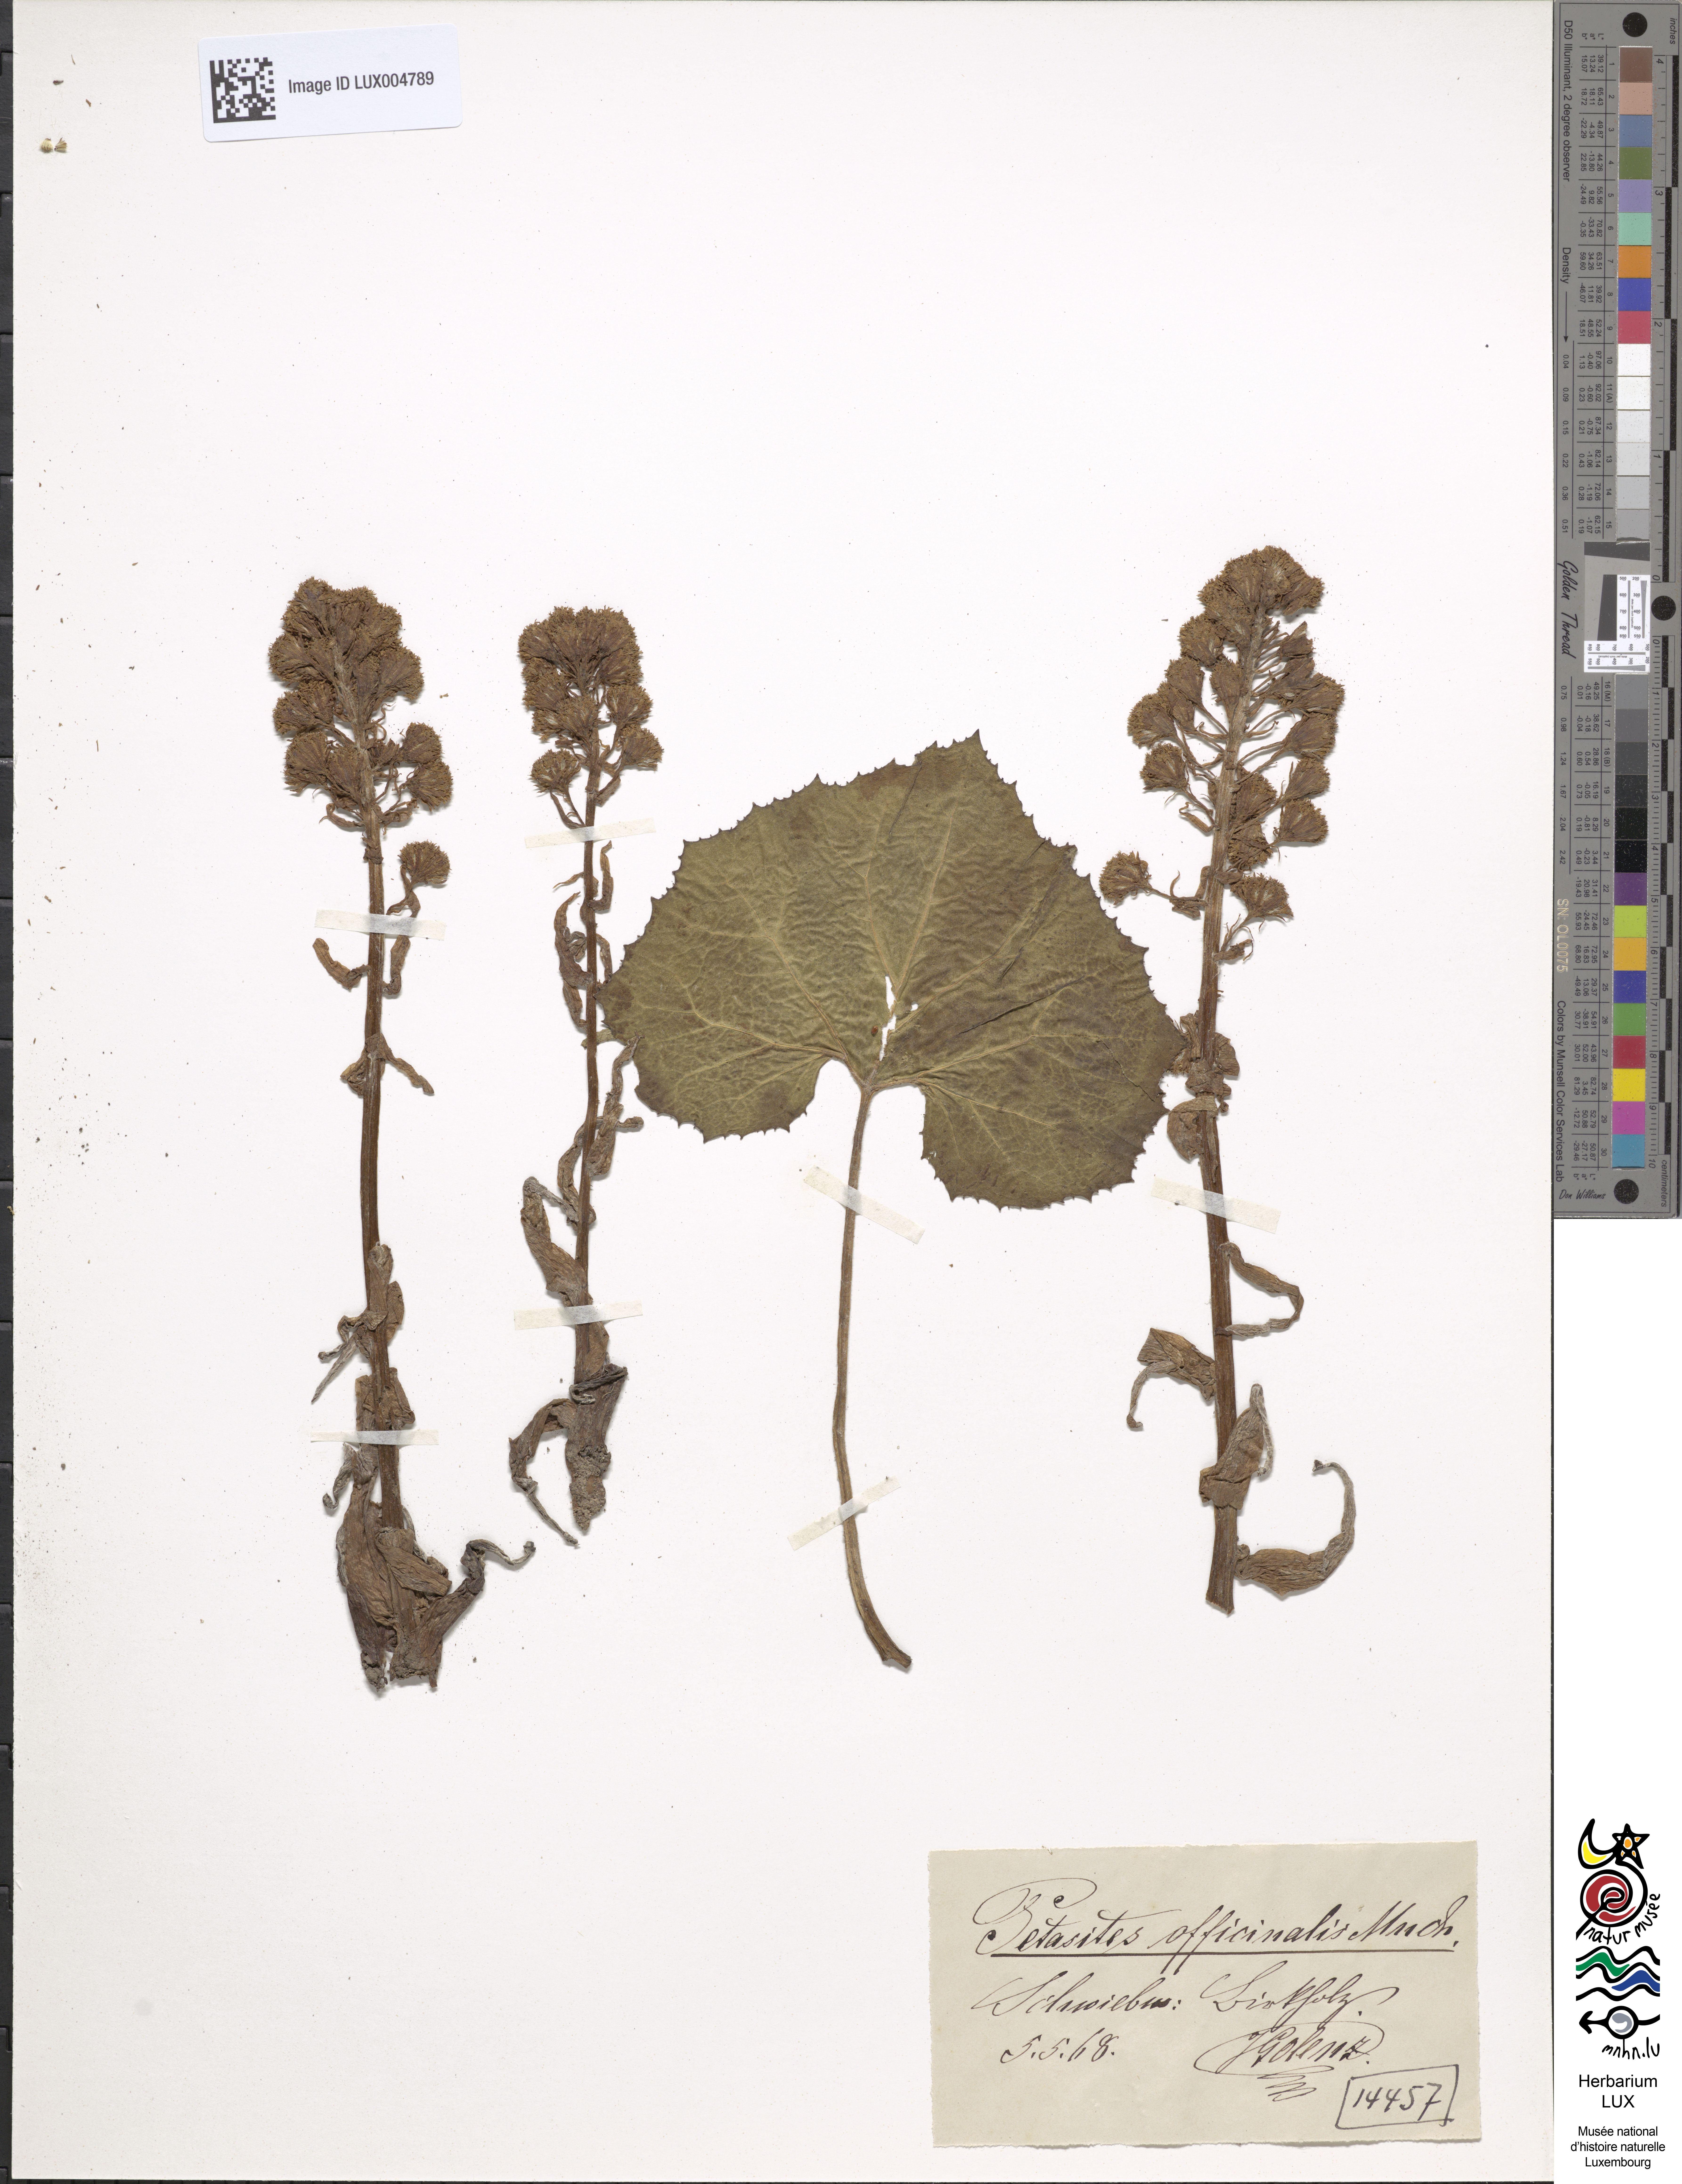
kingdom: Plantae
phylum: Tracheophyta
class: Magnoliopsida
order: Asterales
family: Asteraceae
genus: Petasites
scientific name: Petasites hybridus
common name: Butterbur
